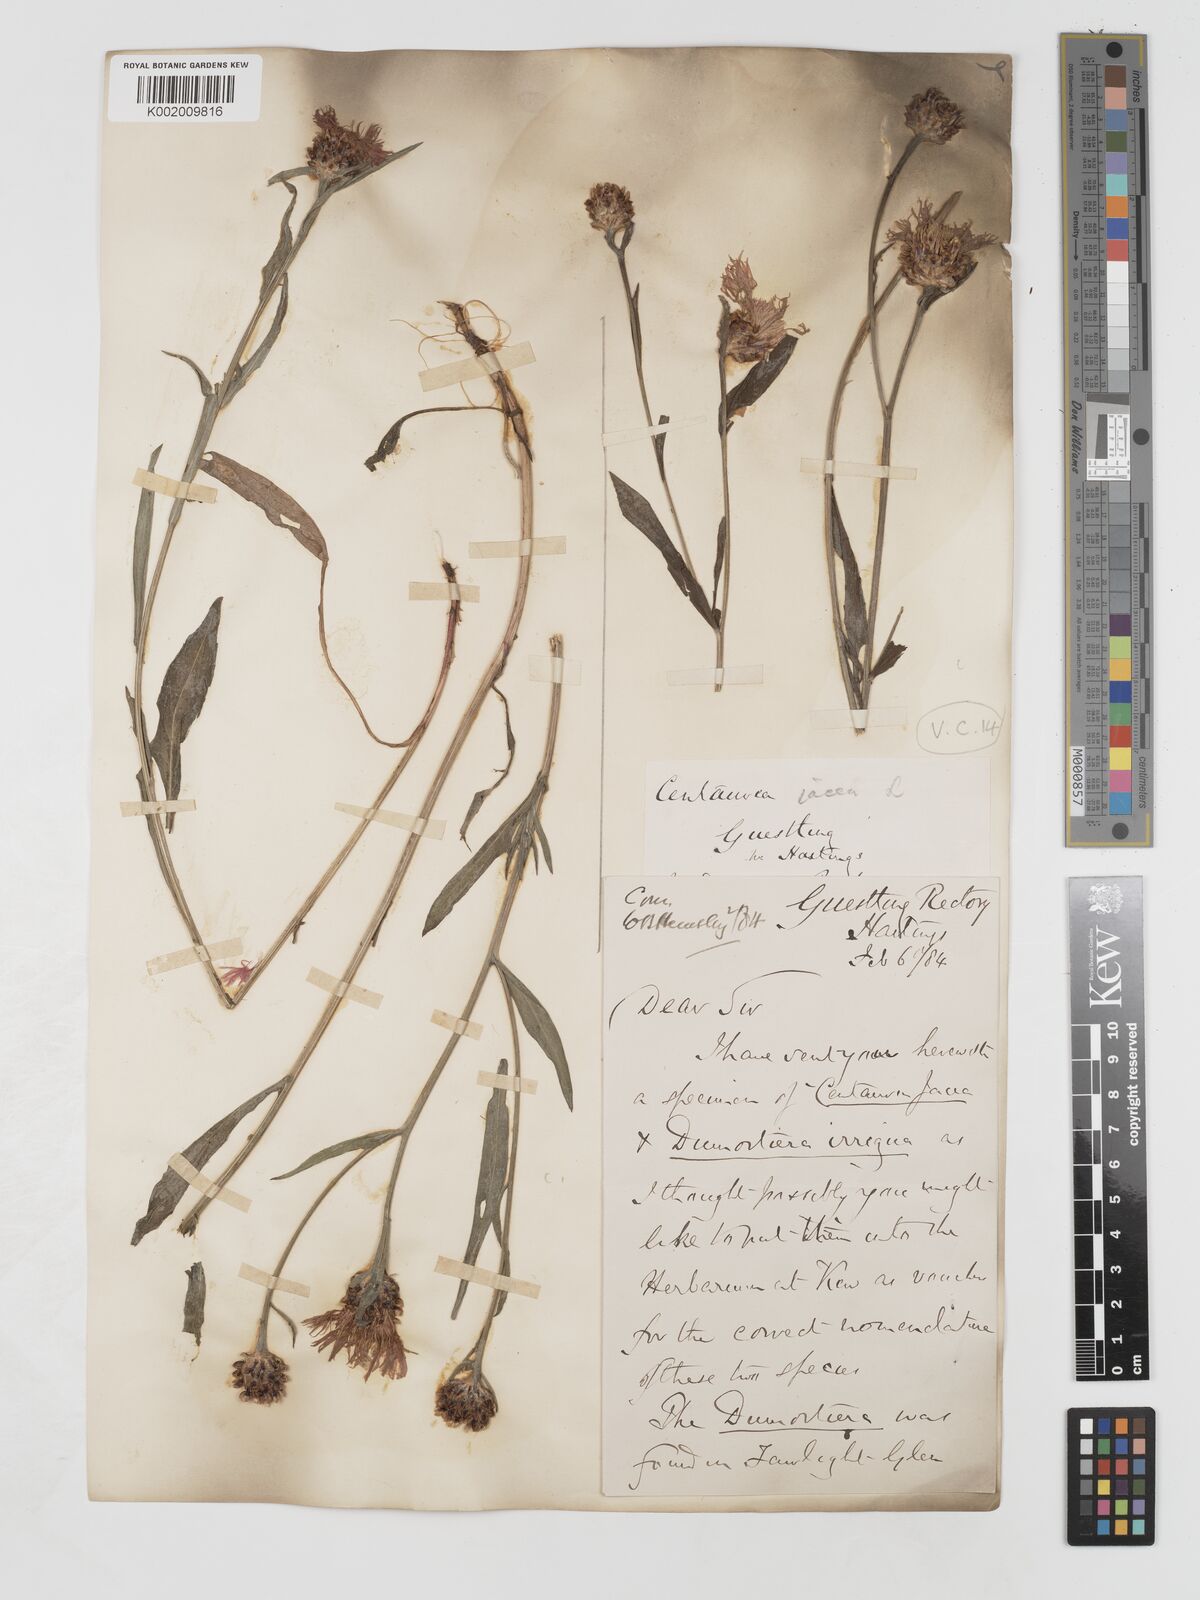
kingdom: Plantae
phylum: Tracheophyta
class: Magnoliopsida
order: Asterales
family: Asteraceae
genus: Centaurea
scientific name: Centaurea jacea
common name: Brown knapweed
